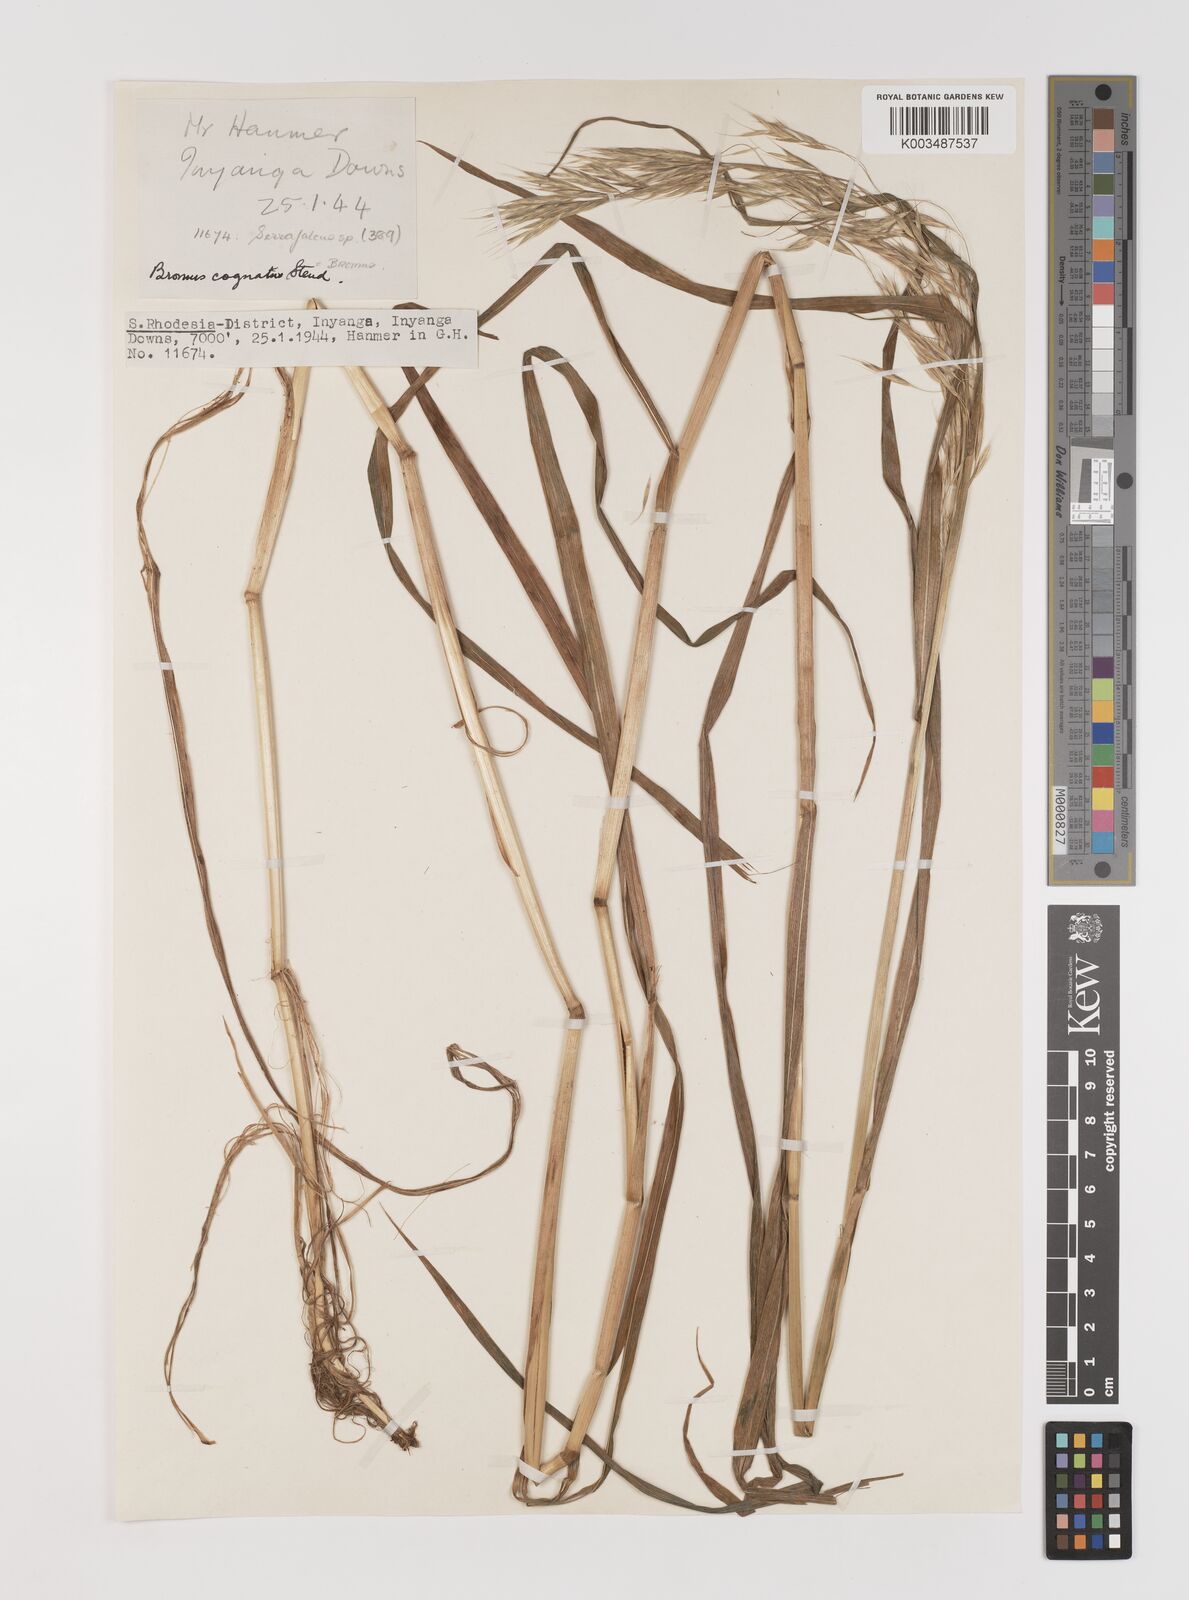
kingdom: Plantae
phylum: Tracheophyta
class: Liliopsida
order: Poales
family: Poaceae
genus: Bromus
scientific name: Bromus leptoclados
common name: Mountain bromegrass
